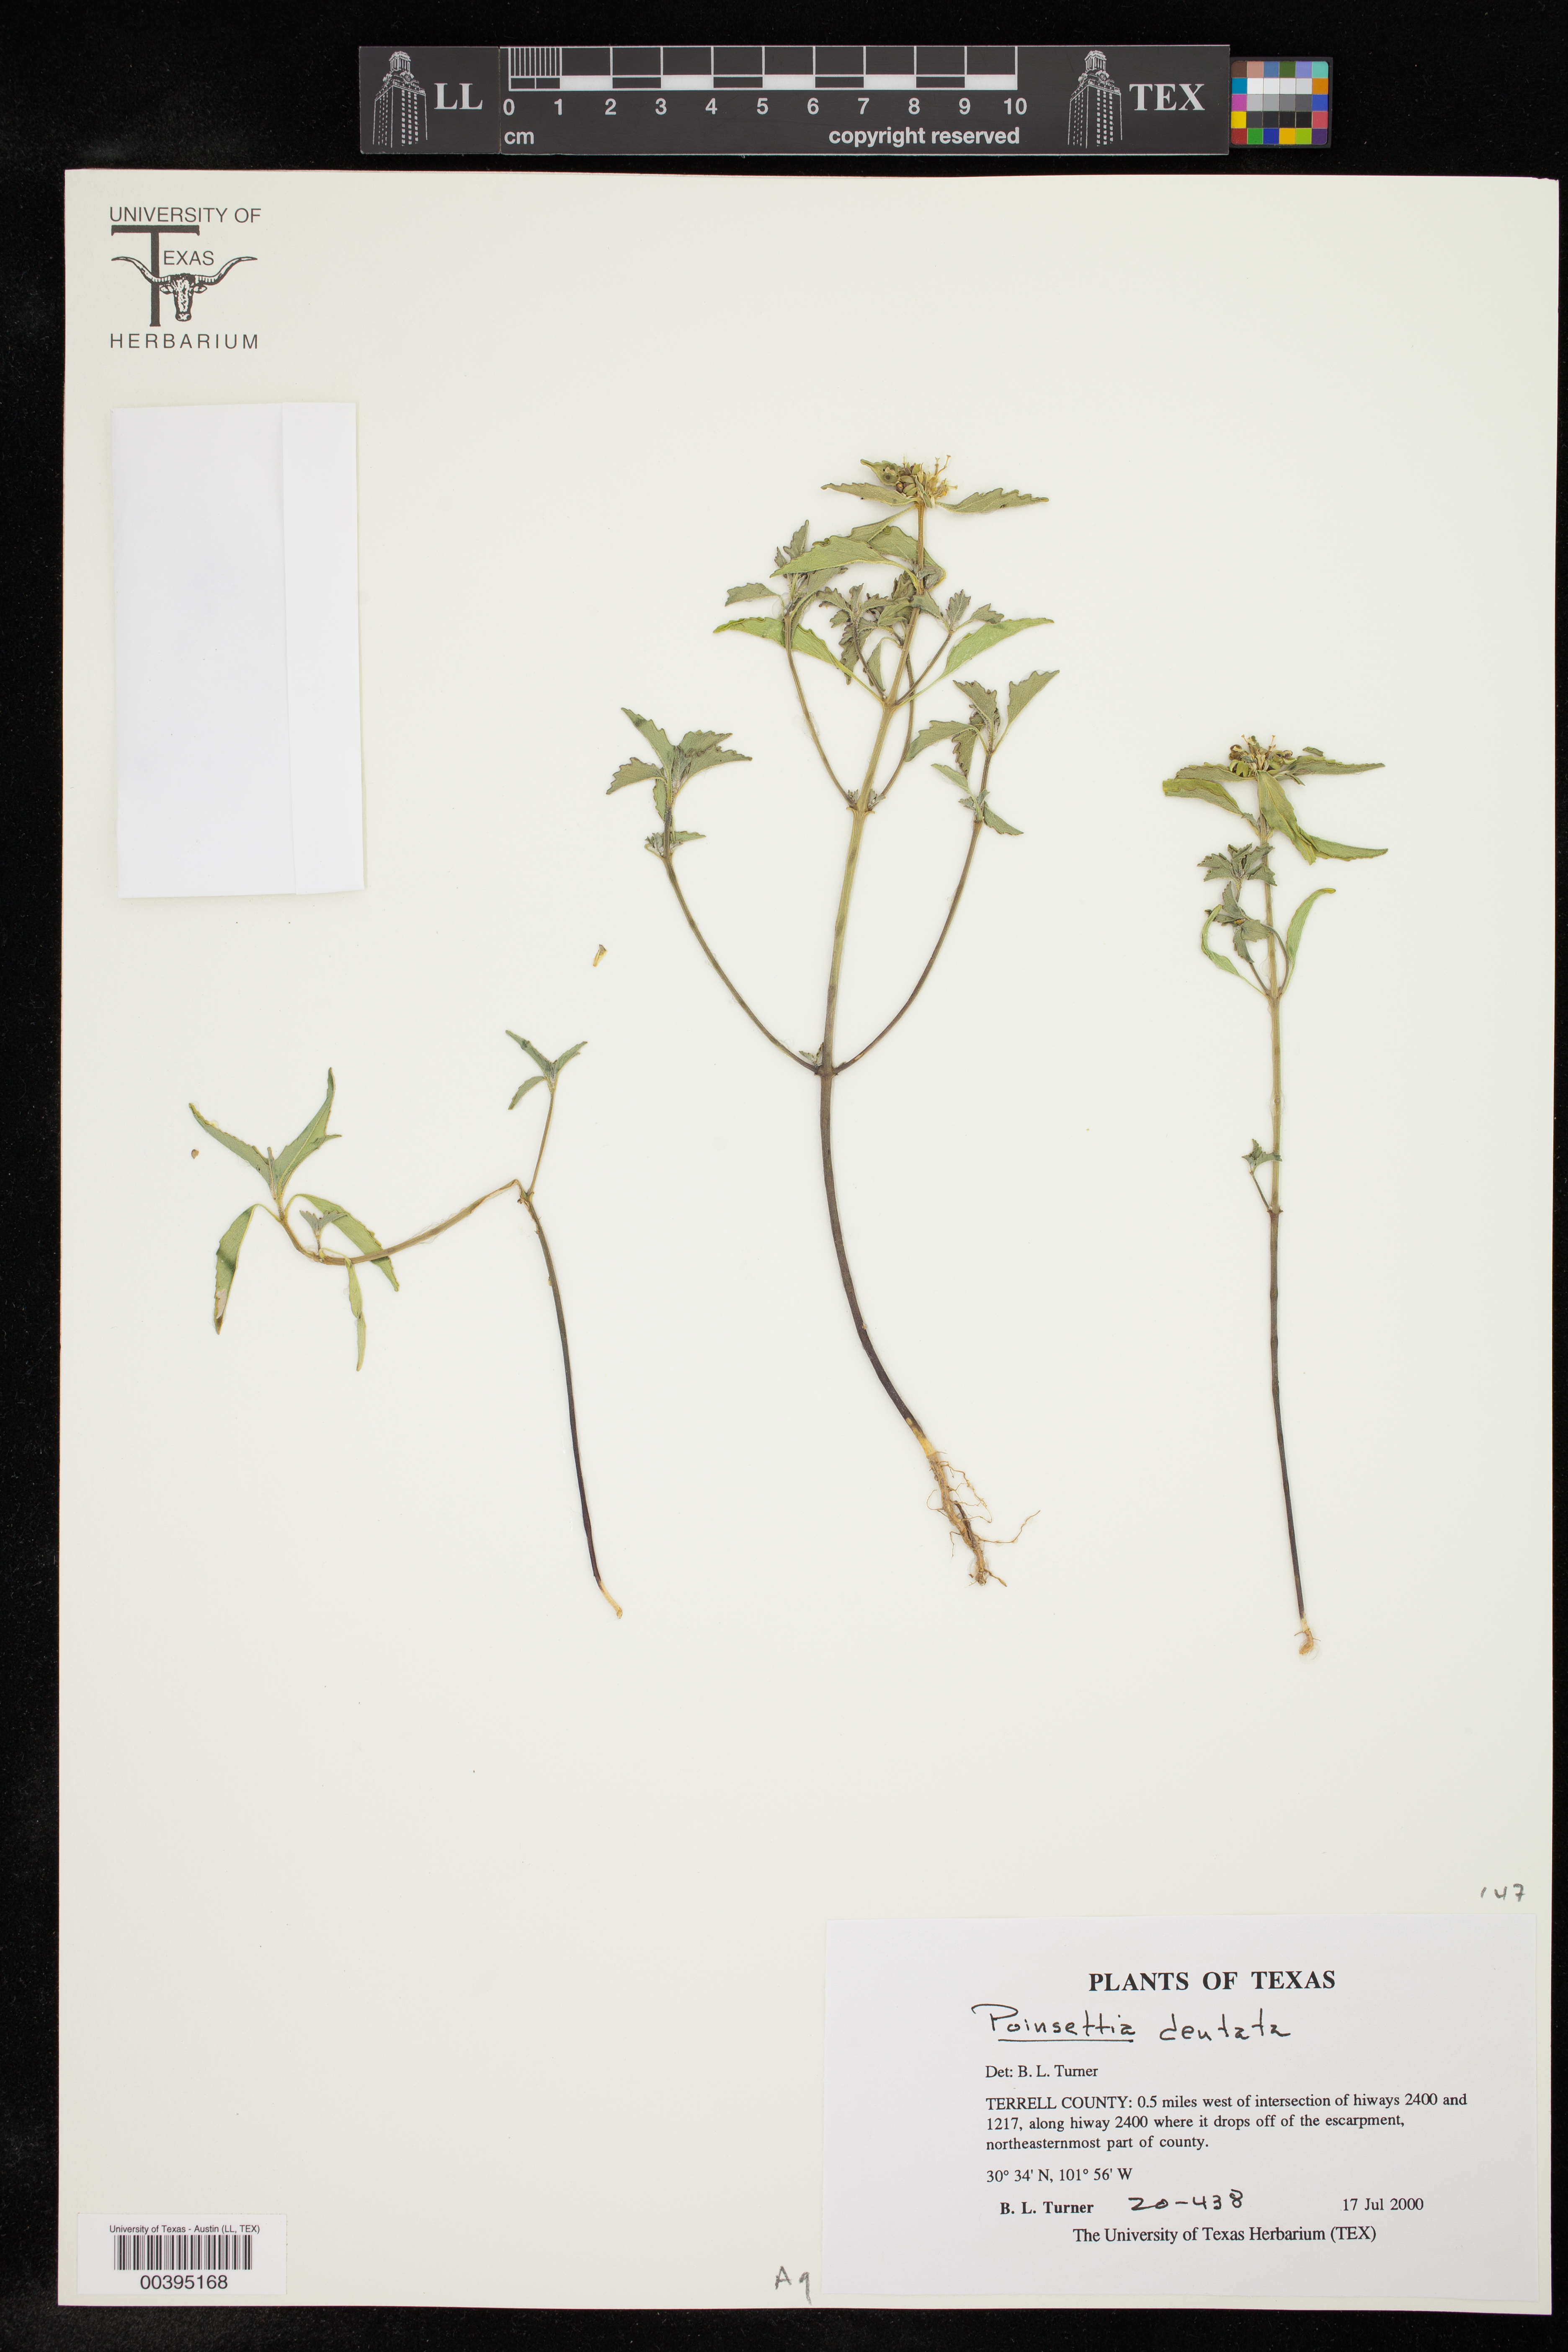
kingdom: Plantae
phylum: Tracheophyta
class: Magnoliopsida
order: Malpighiales
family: Euphorbiaceae
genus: Euphorbia
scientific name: Euphorbia dentata
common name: Dentate spurge
